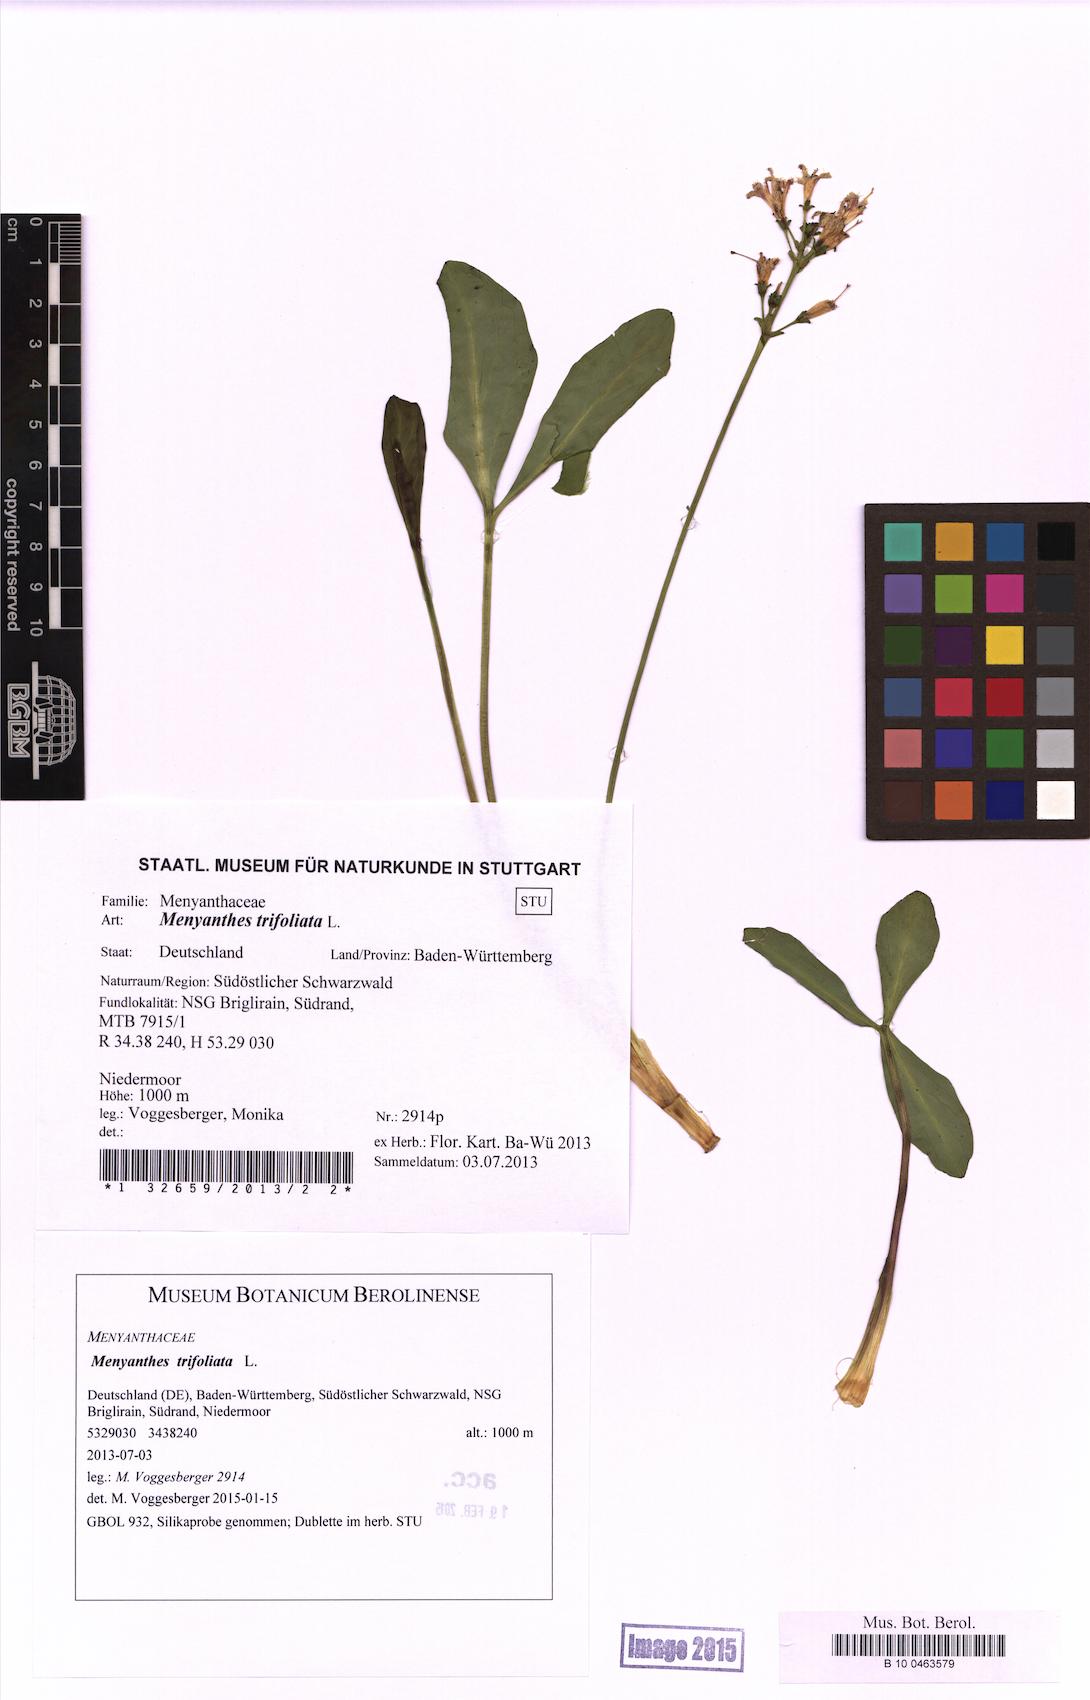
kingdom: Plantae
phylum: Tracheophyta
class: Magnoliopsida
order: Asterales
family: Menyanthaceae
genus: Menyanthes
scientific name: Menyanthes trifoliata
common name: Bogbean
